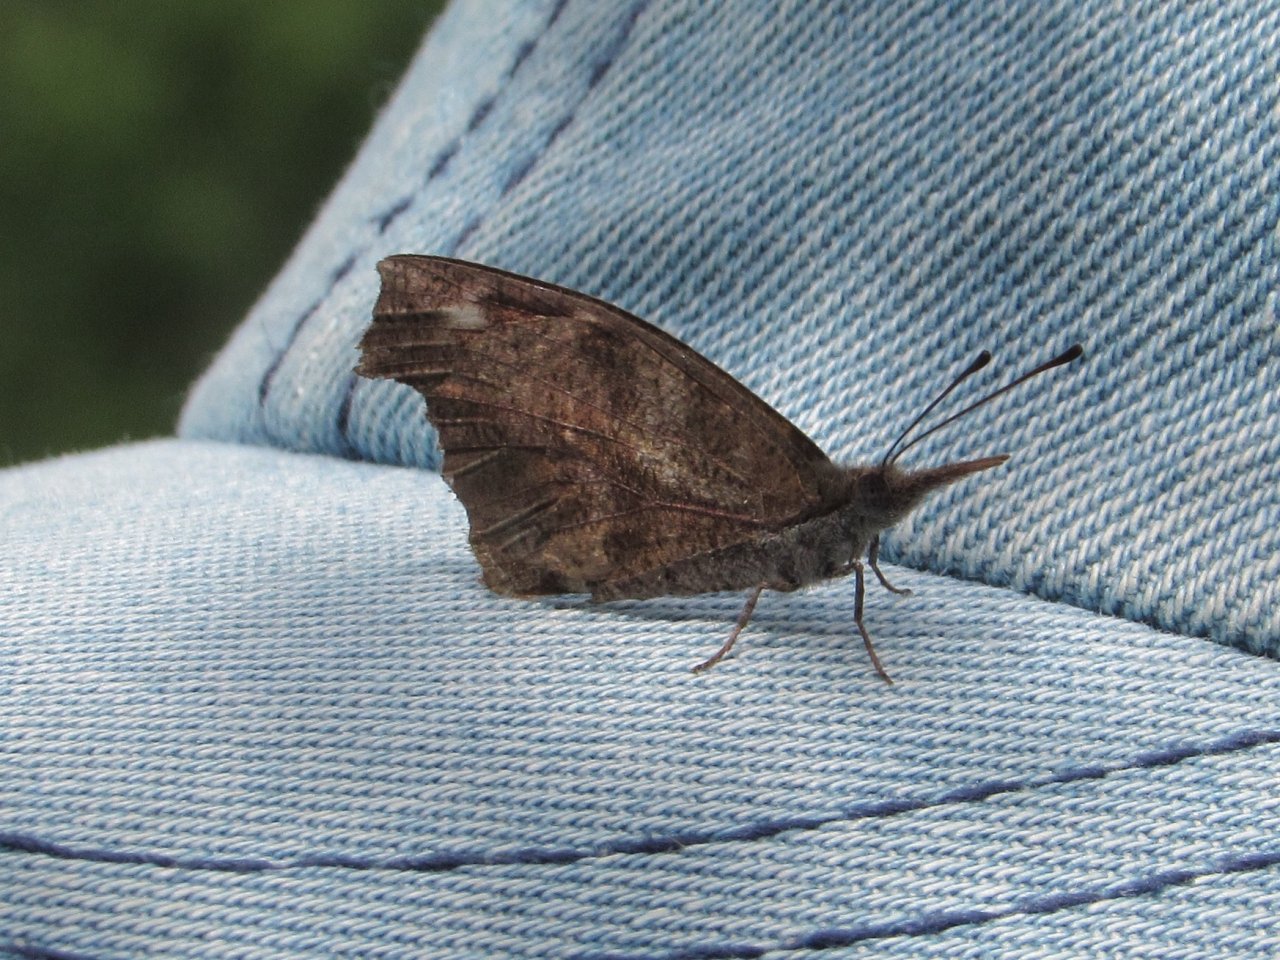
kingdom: Animalia
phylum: Arthropoda
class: Insecta
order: Lepidoptera
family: Nymphalidae
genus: Libytheana
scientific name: Libytheana carinenta
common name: American Snout
